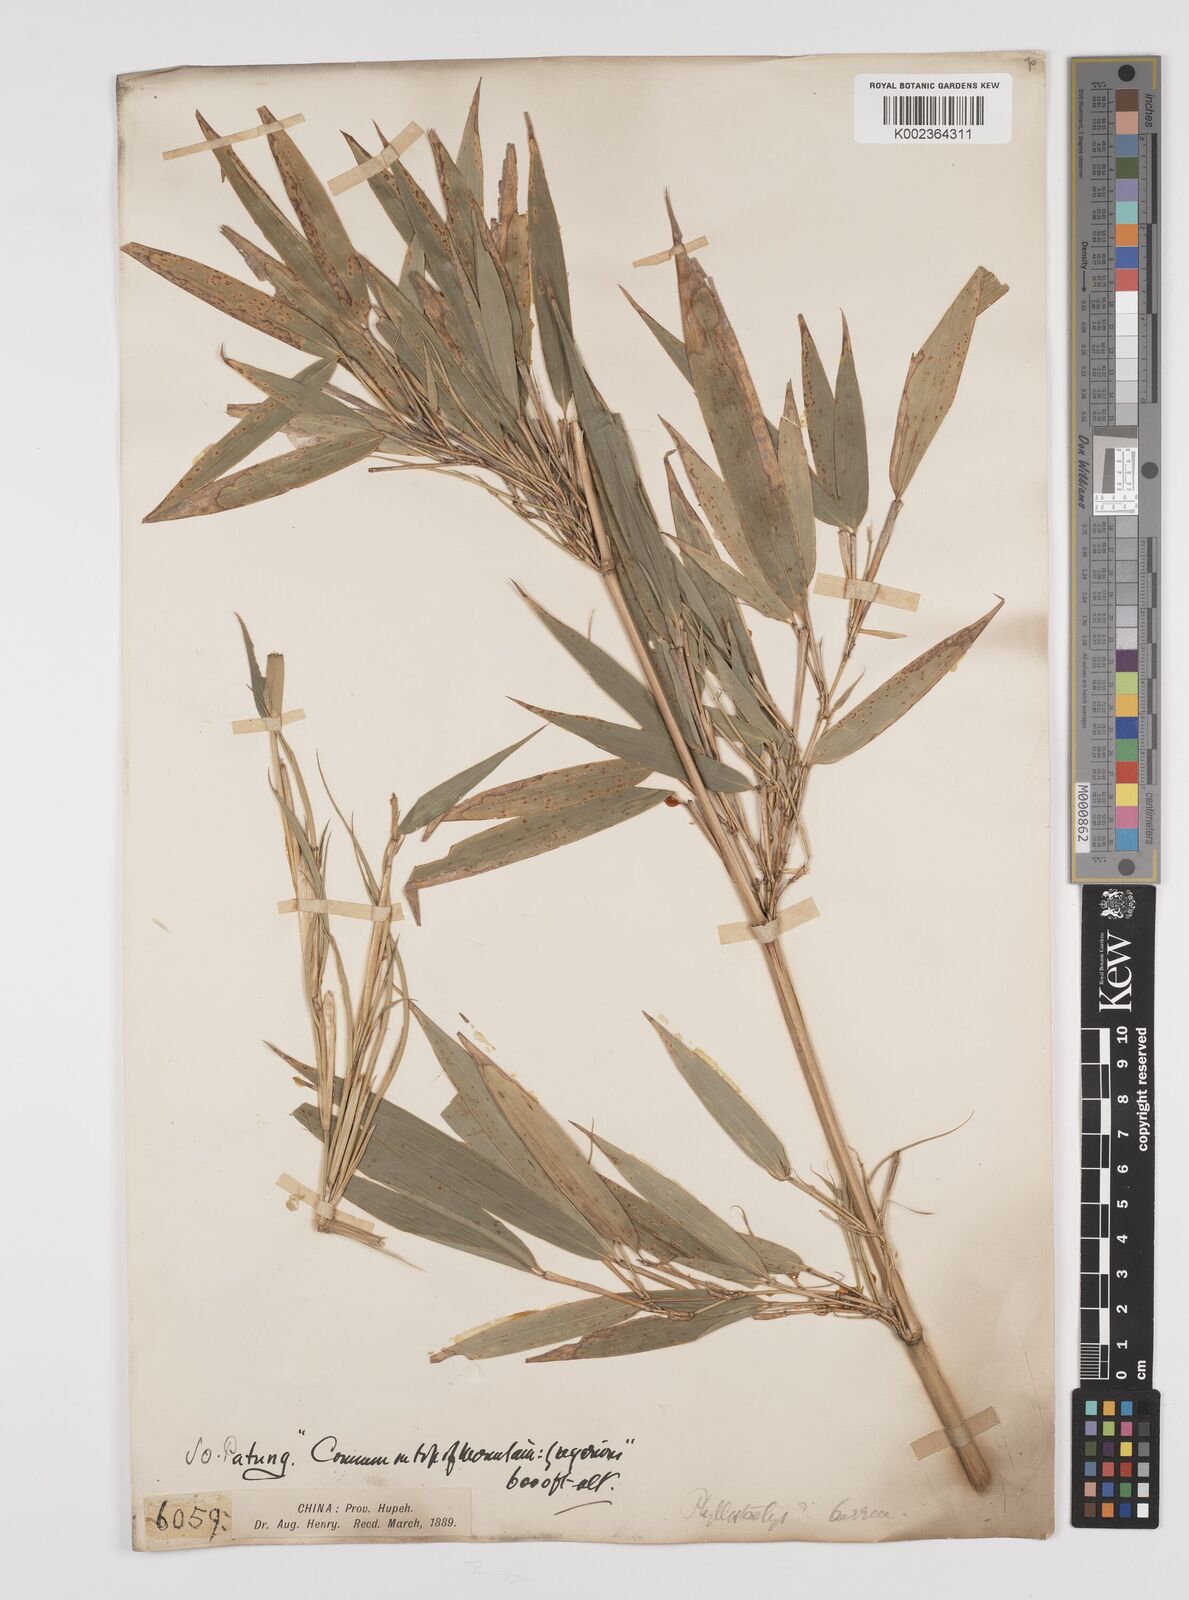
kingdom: Plantae
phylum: Tracheophyta
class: Liliopsida
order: Poales
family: Poaceae
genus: Phyllostachys
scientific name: Phyllostachys
